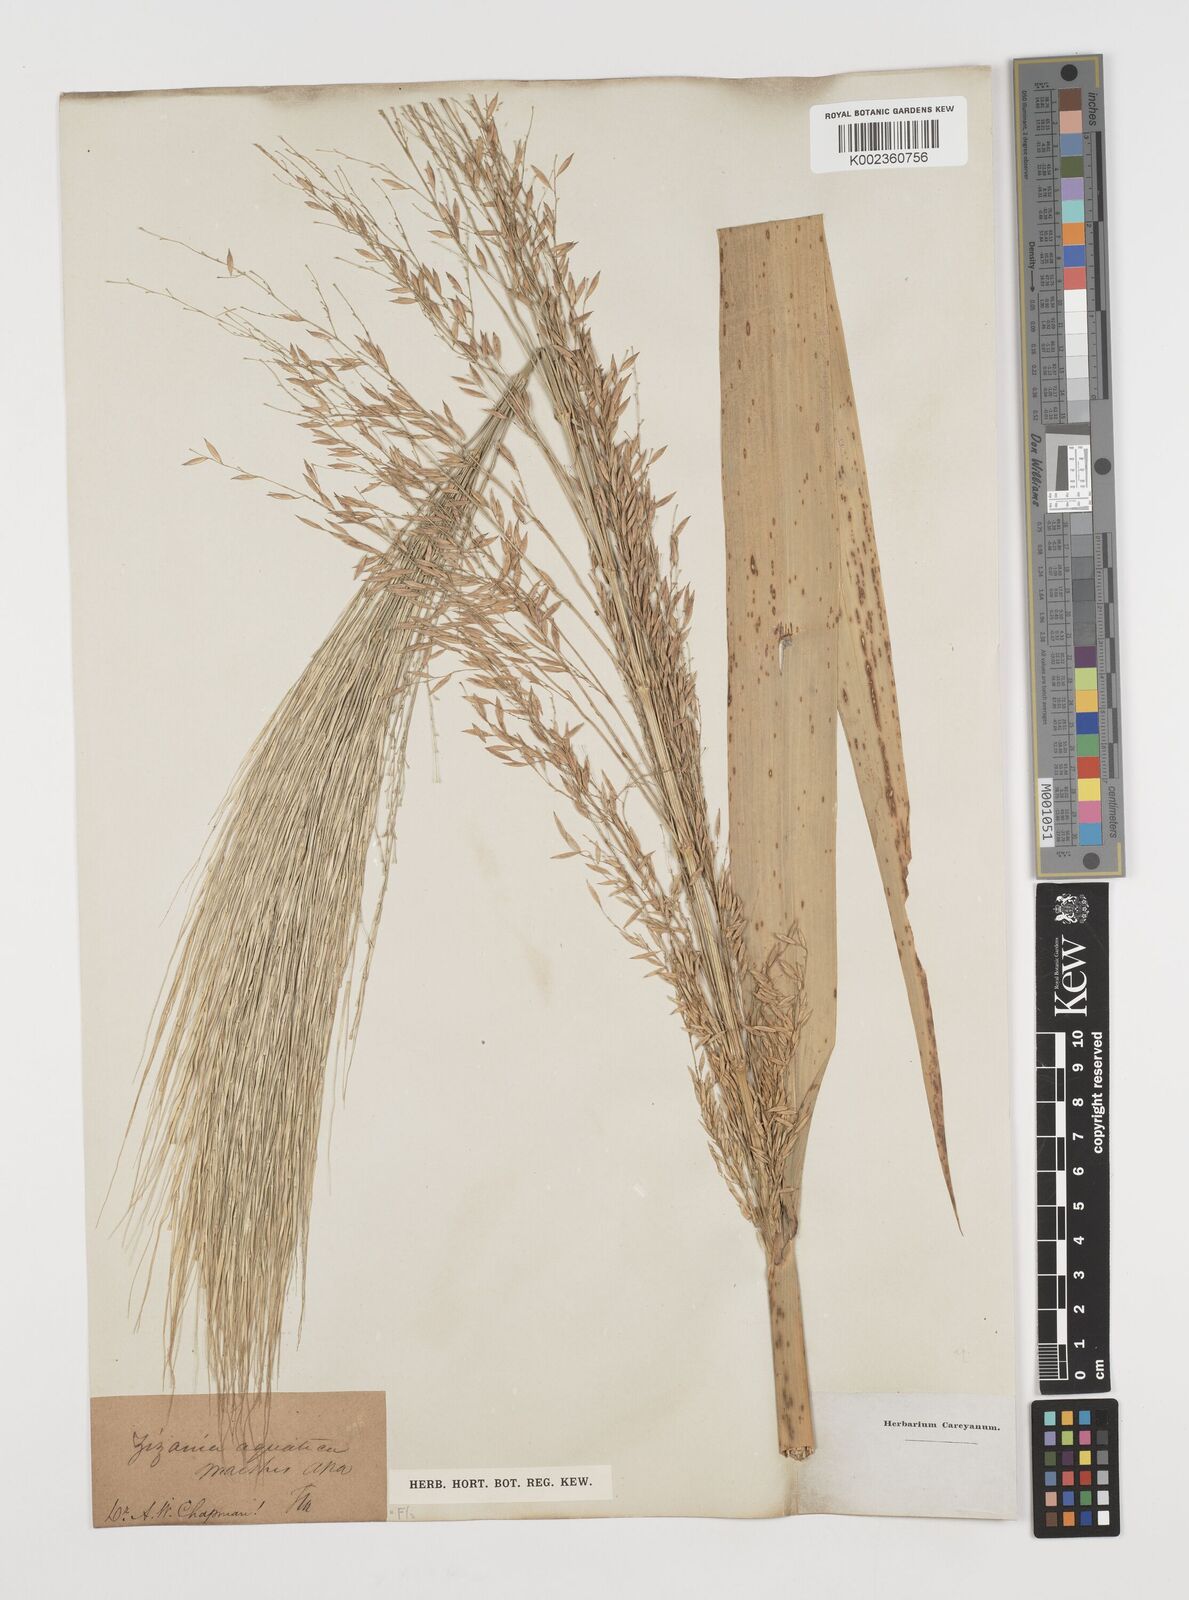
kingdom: Plantae
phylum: Tracheophyta
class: Liliopsida
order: Poales
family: Poaceae
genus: Zizania
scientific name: Zizania aquatica
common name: Annual wildrice
